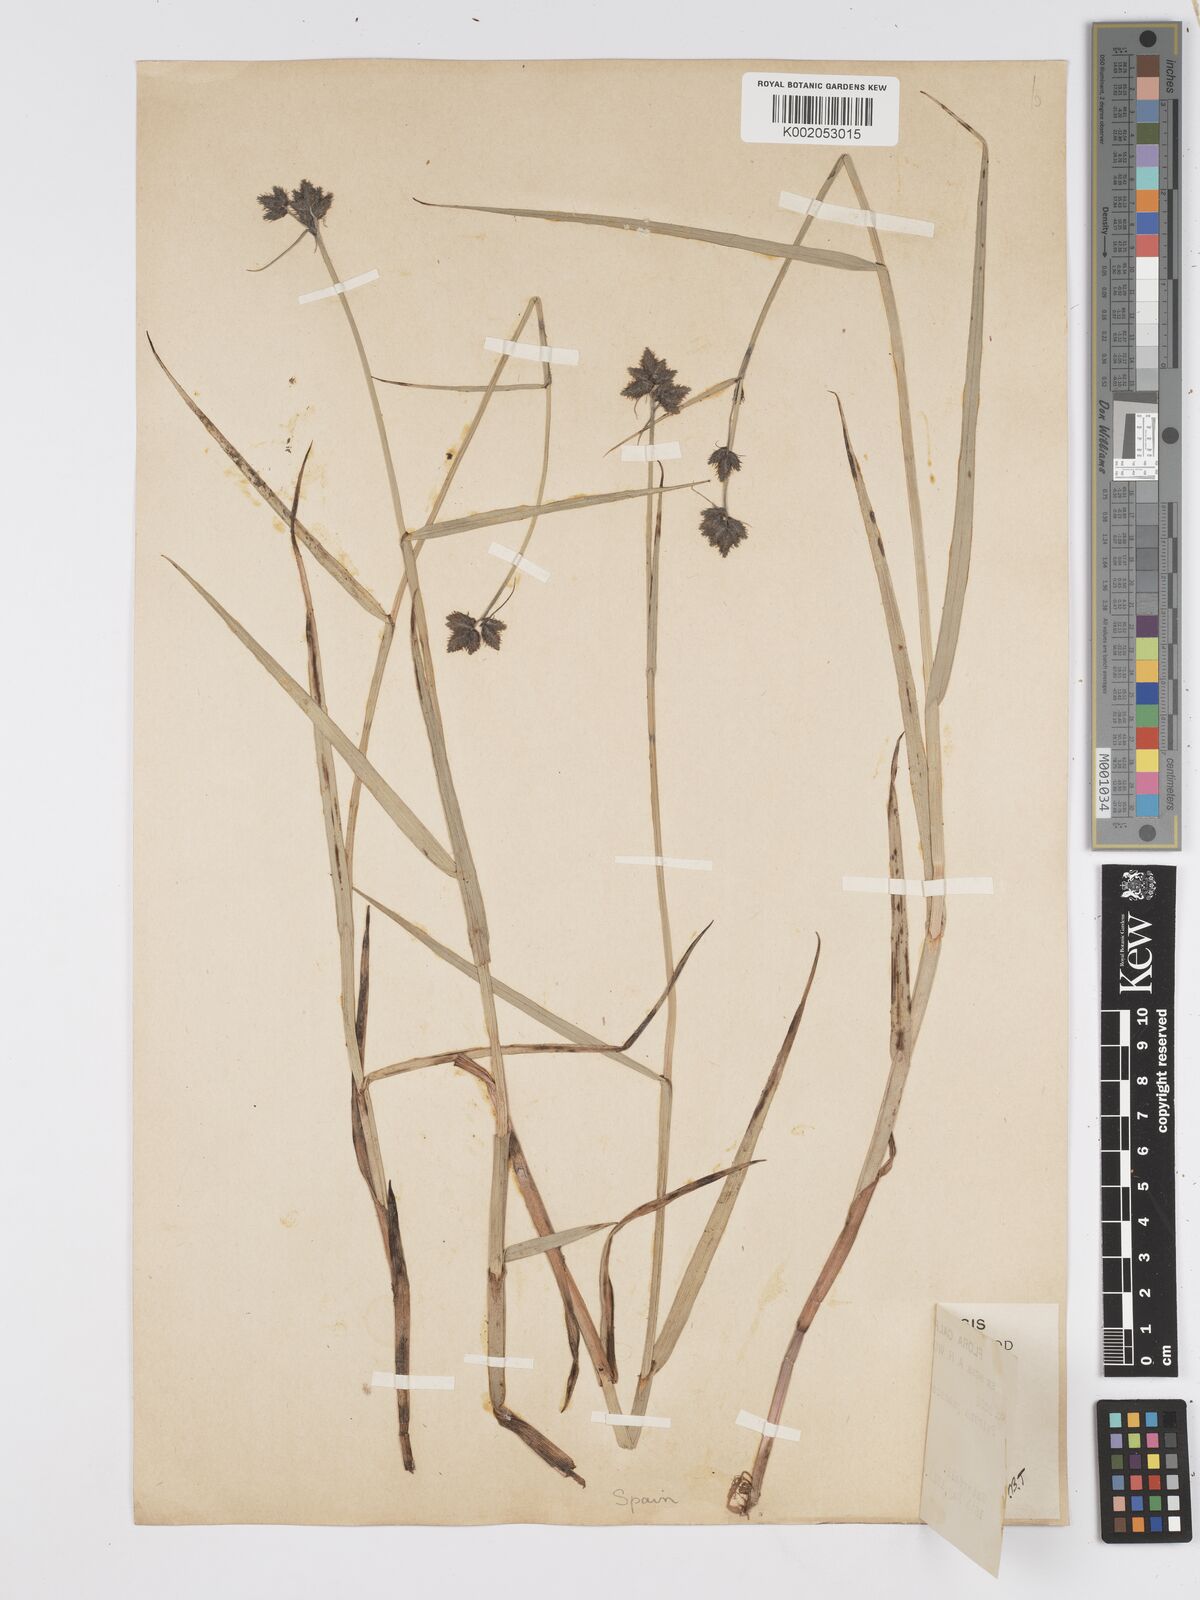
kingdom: Plantae
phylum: Tracheophyta
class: Liliopsida
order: Poales
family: Cyperaceae
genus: Fuirena
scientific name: Fuirena pubescens
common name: Hairy sedge
